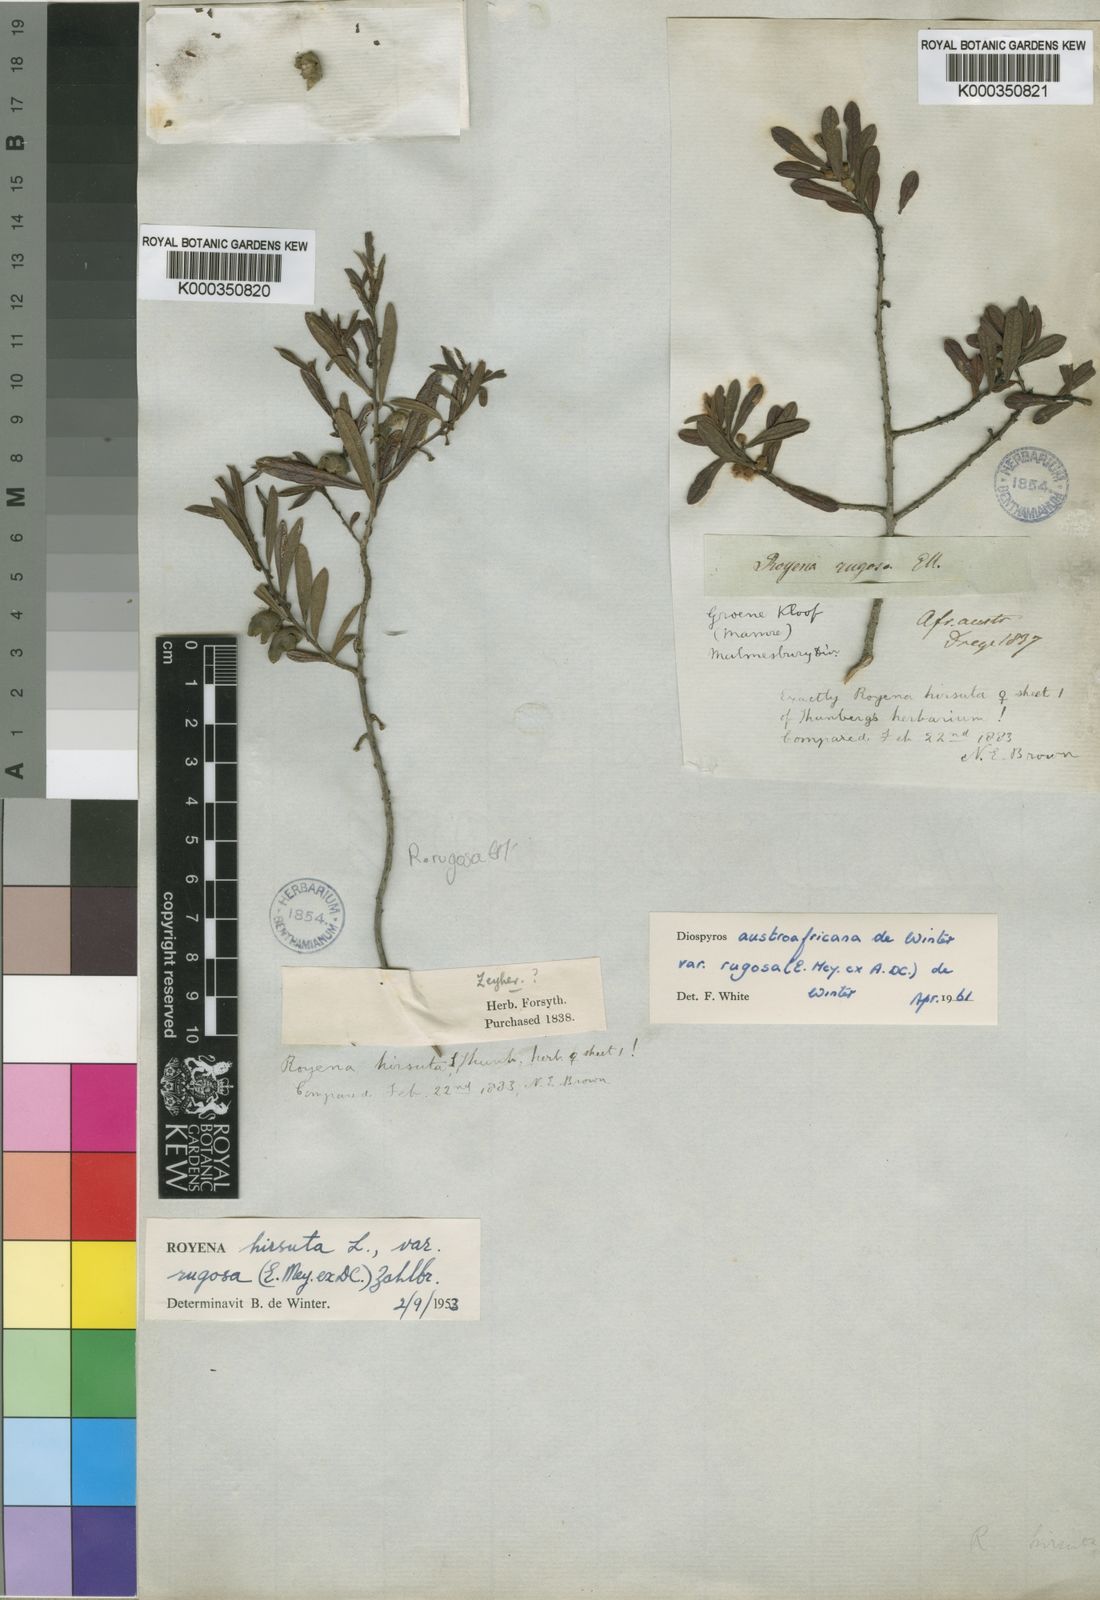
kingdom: Plantae
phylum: Tracheophyta
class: Magnoliopsida
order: Ericales
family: Ebenaceae
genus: Diospyros
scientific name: Diospyros pubescens
